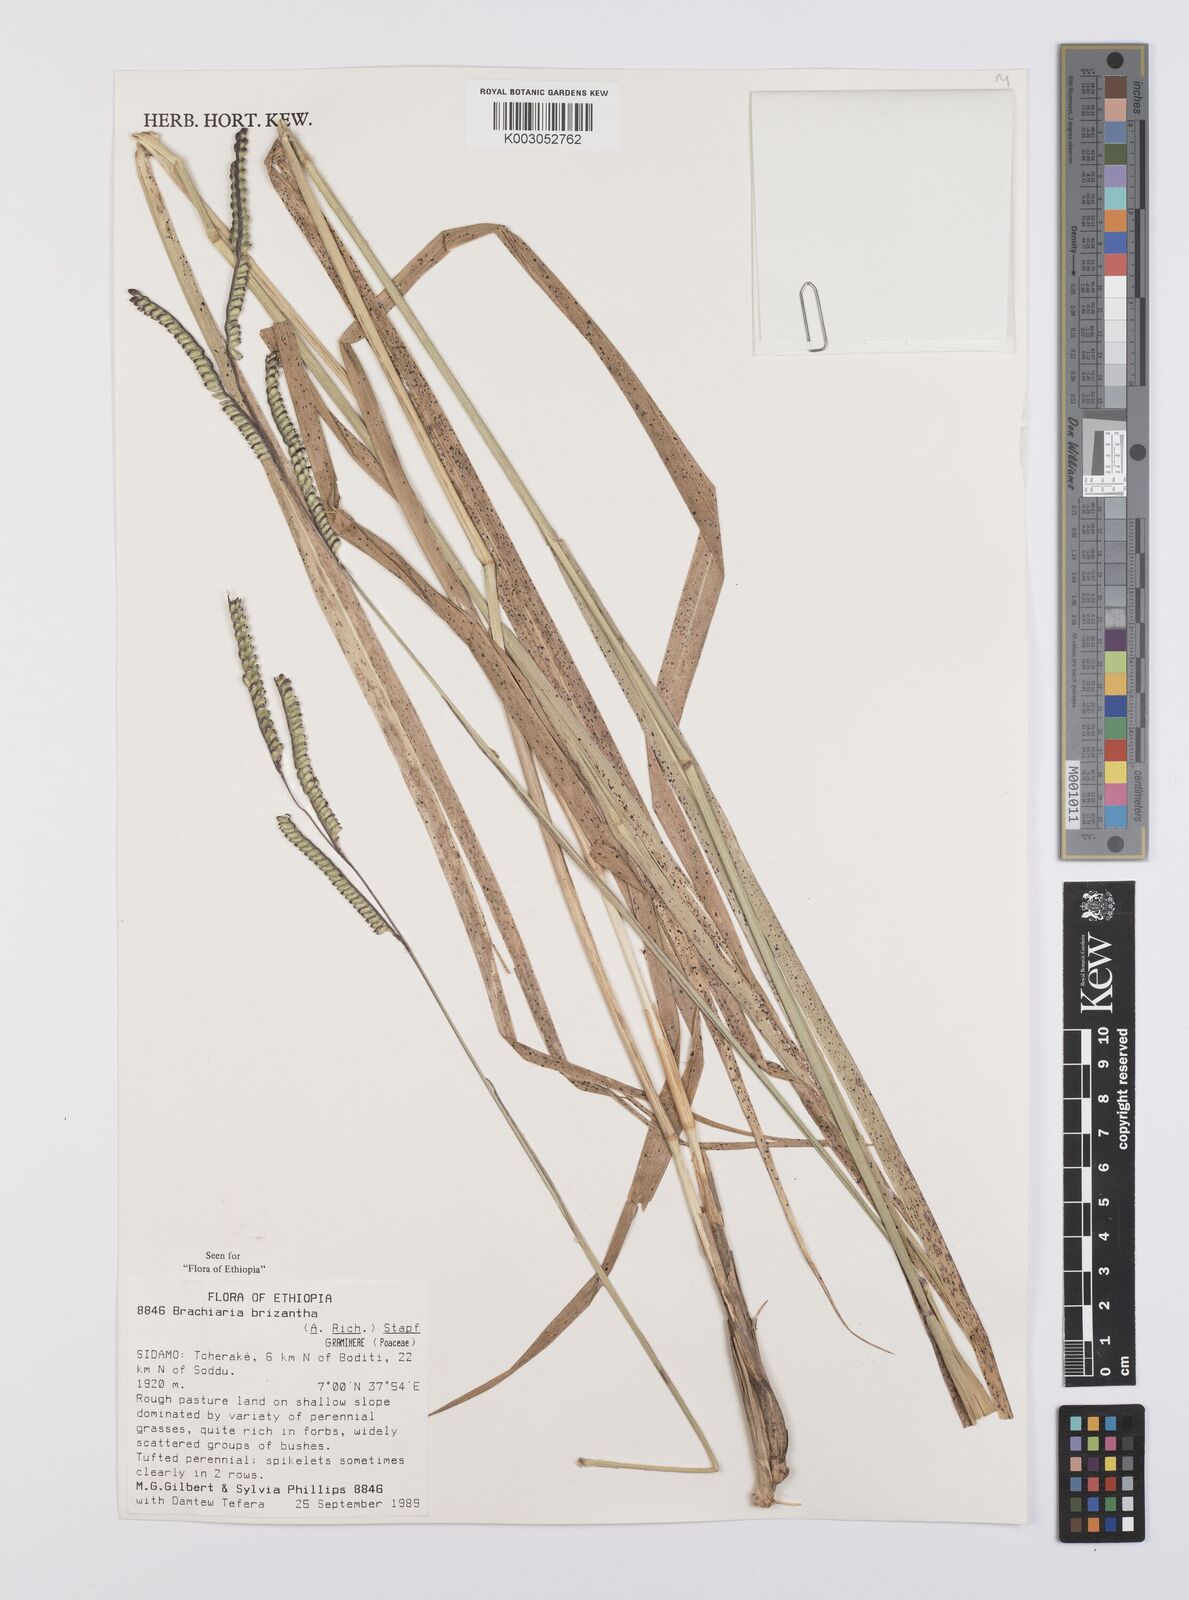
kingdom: Plantae
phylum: Tracheophyta
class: Liliopsida
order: Poales
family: Poaceae
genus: Urochloa
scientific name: Urochloa brizantha
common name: Palisade signalgrass
